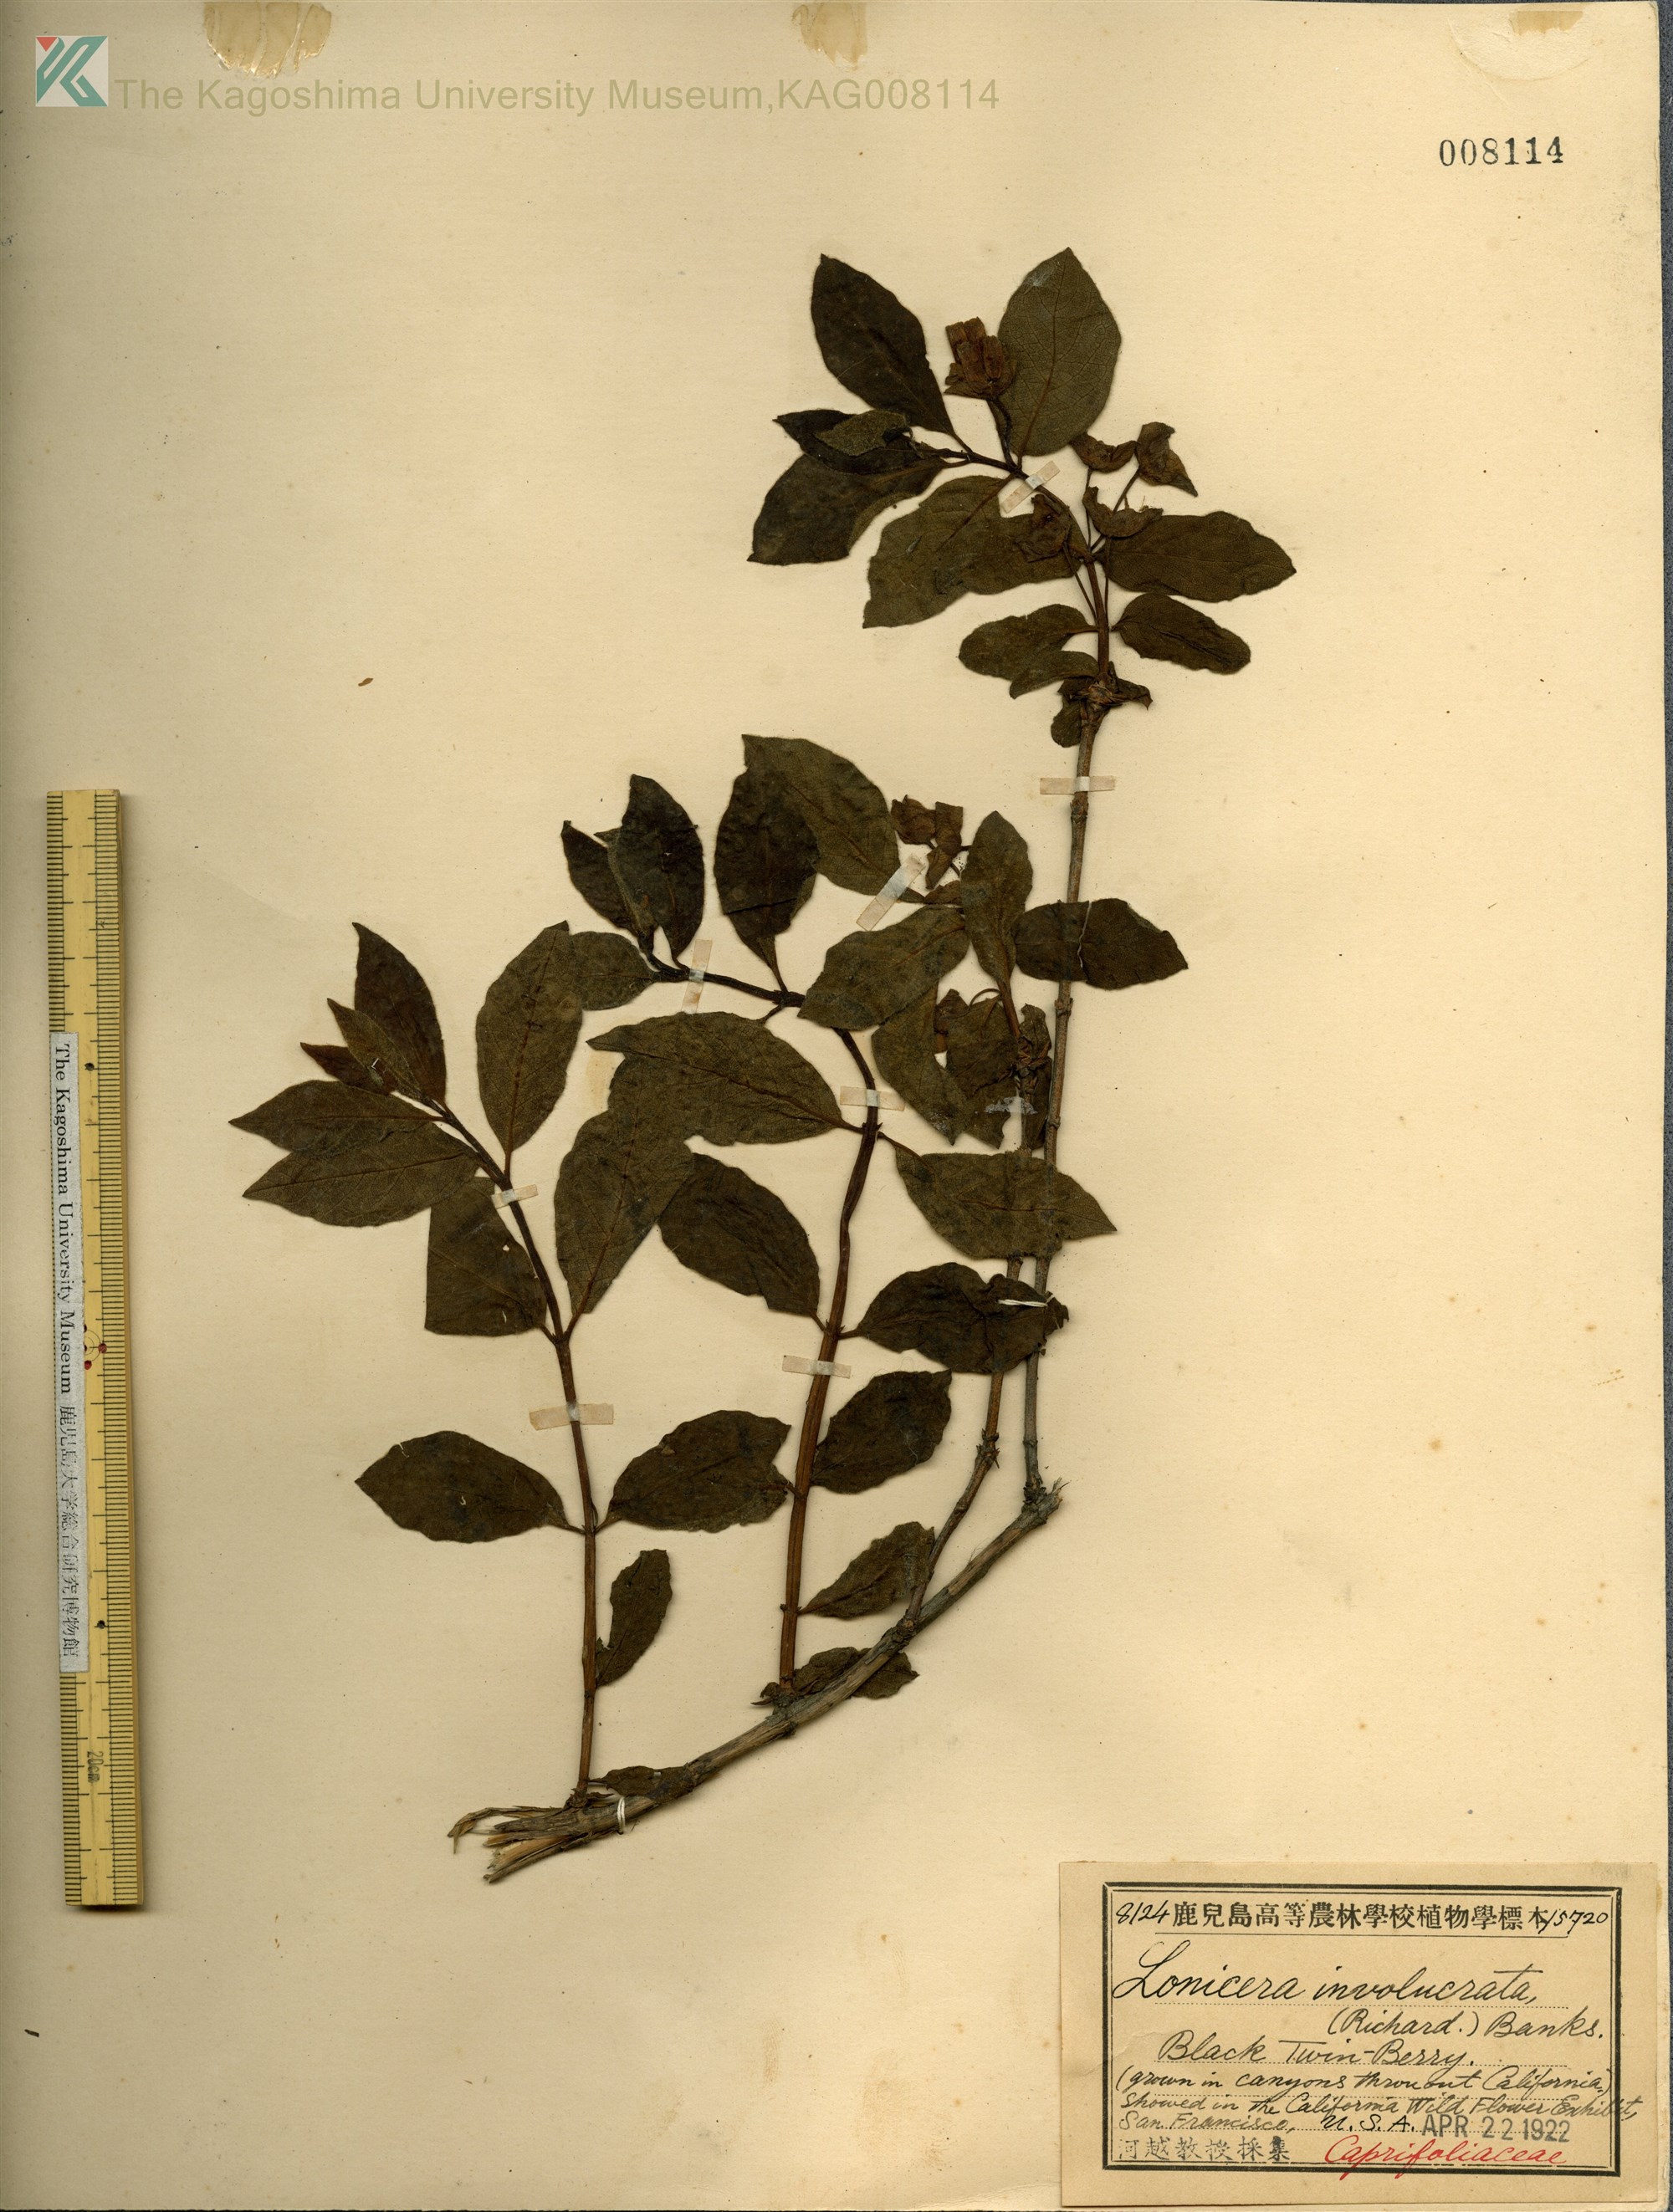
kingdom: Plantae
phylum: Tracheophyta
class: Magnoliopsida
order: Dipsacales
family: Caprifoliaceae
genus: Lonicera
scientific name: Lonicera involucrata
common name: Californian honeysuckle
